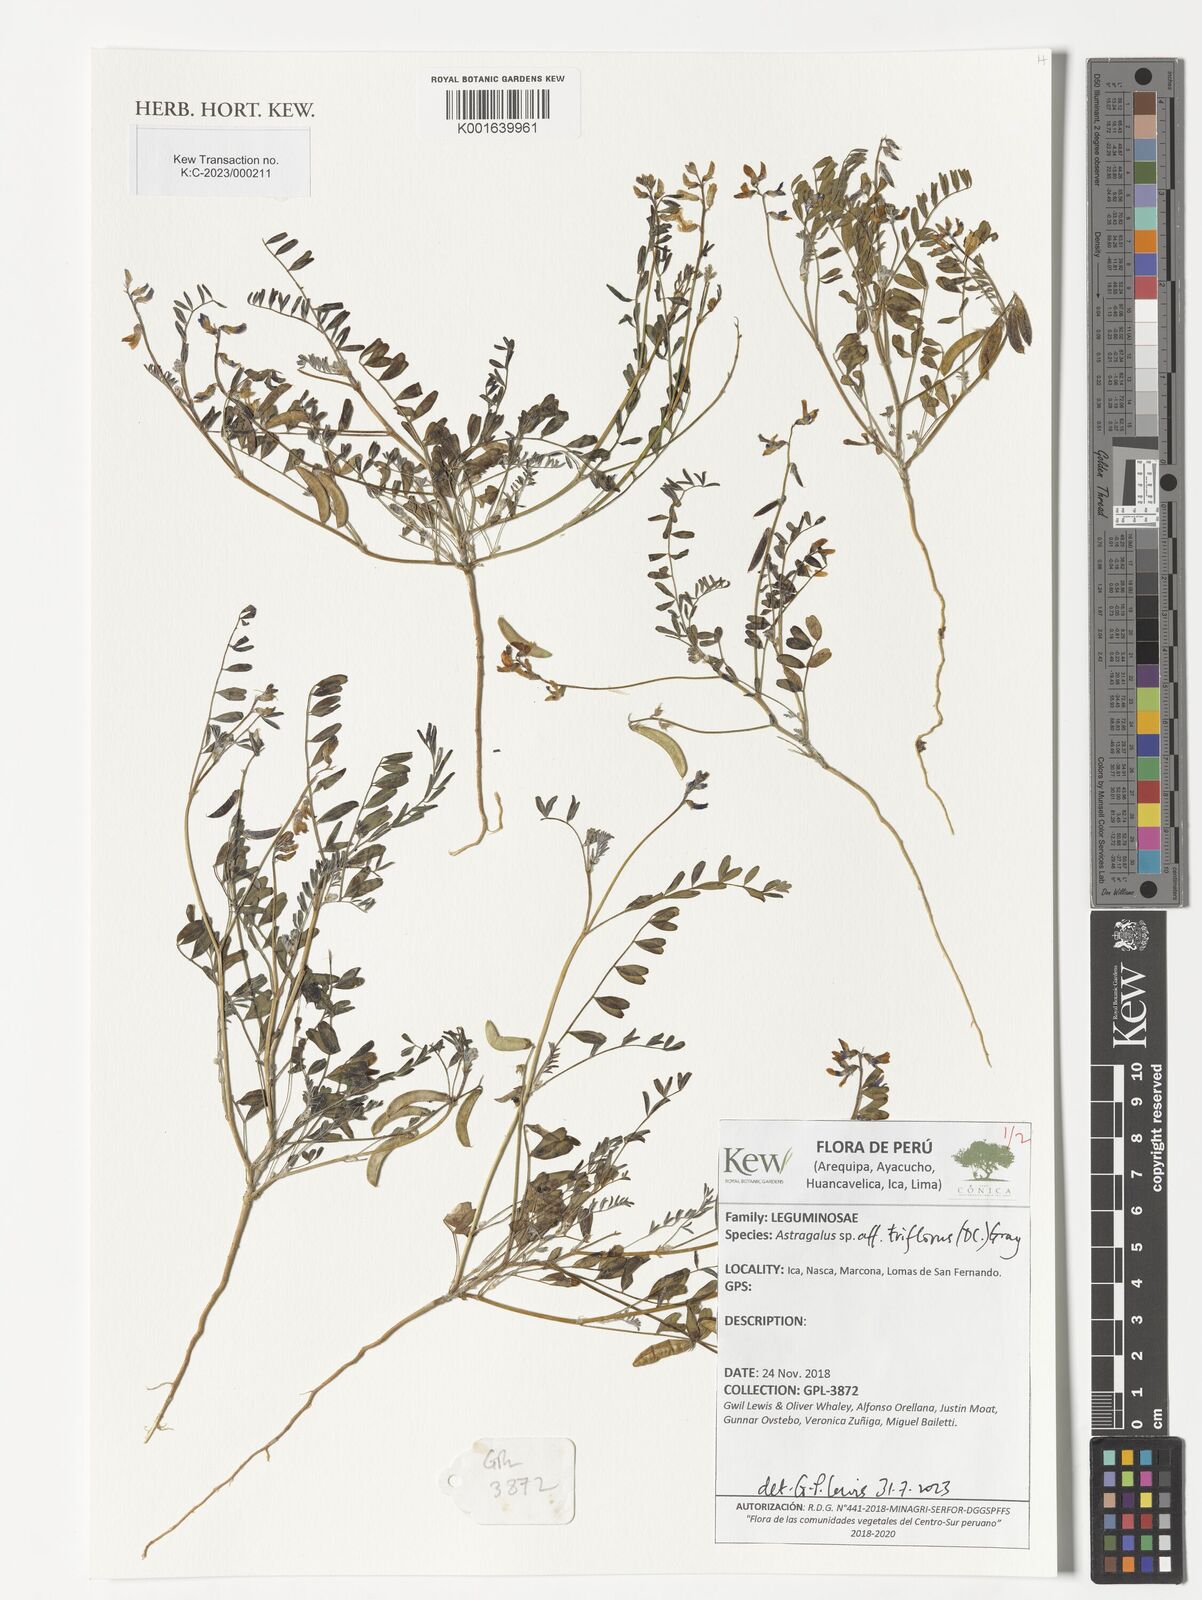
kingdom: Plantae
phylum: Tracheophyta
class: Magnoliopsida
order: Fabales
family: Fabaceae
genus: Astragalus
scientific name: Astragalus triflorus
